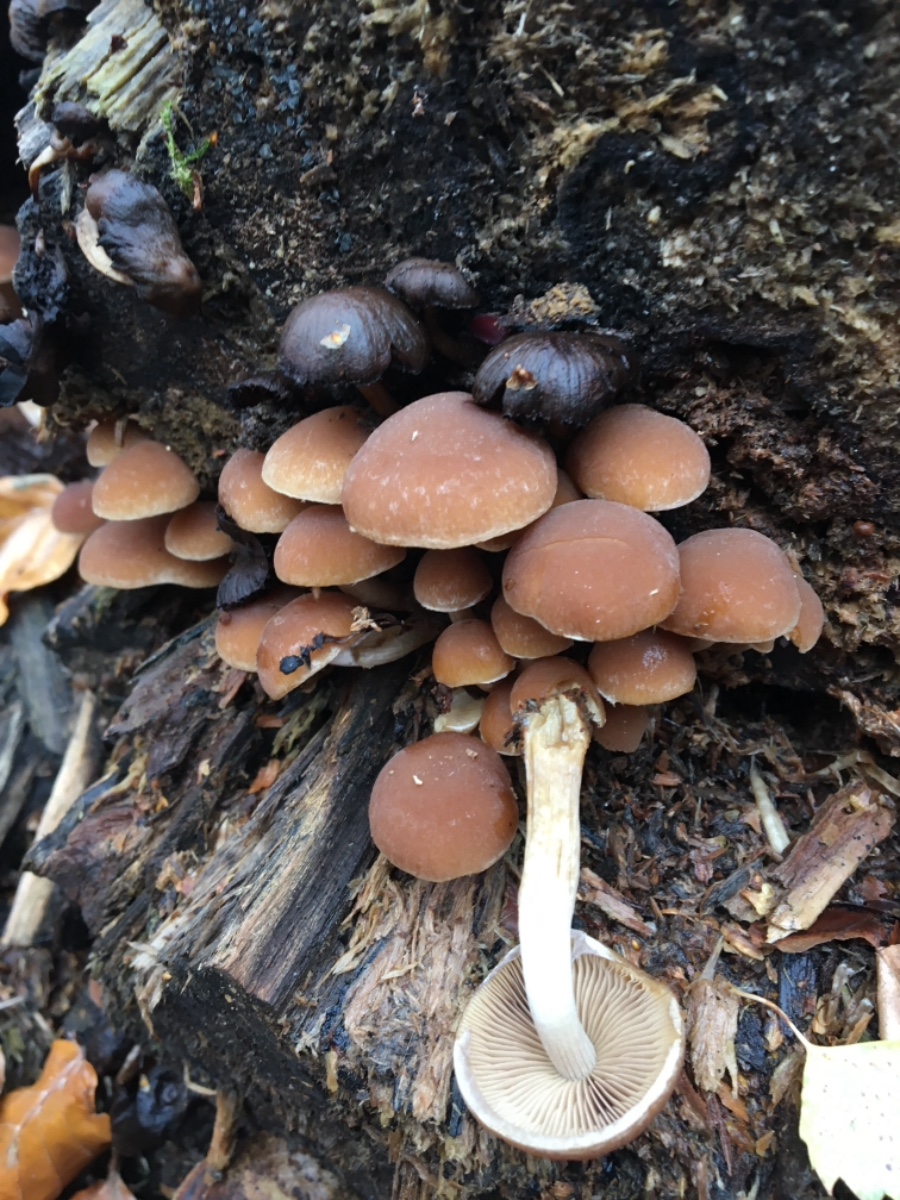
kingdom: Fungi
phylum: Basidiomycota
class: Agaricomycetes
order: Agaricales
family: Psathyrellaceae
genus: Psathyrella
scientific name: Psathyrella piluliformis
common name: lysstokket mørkhat
